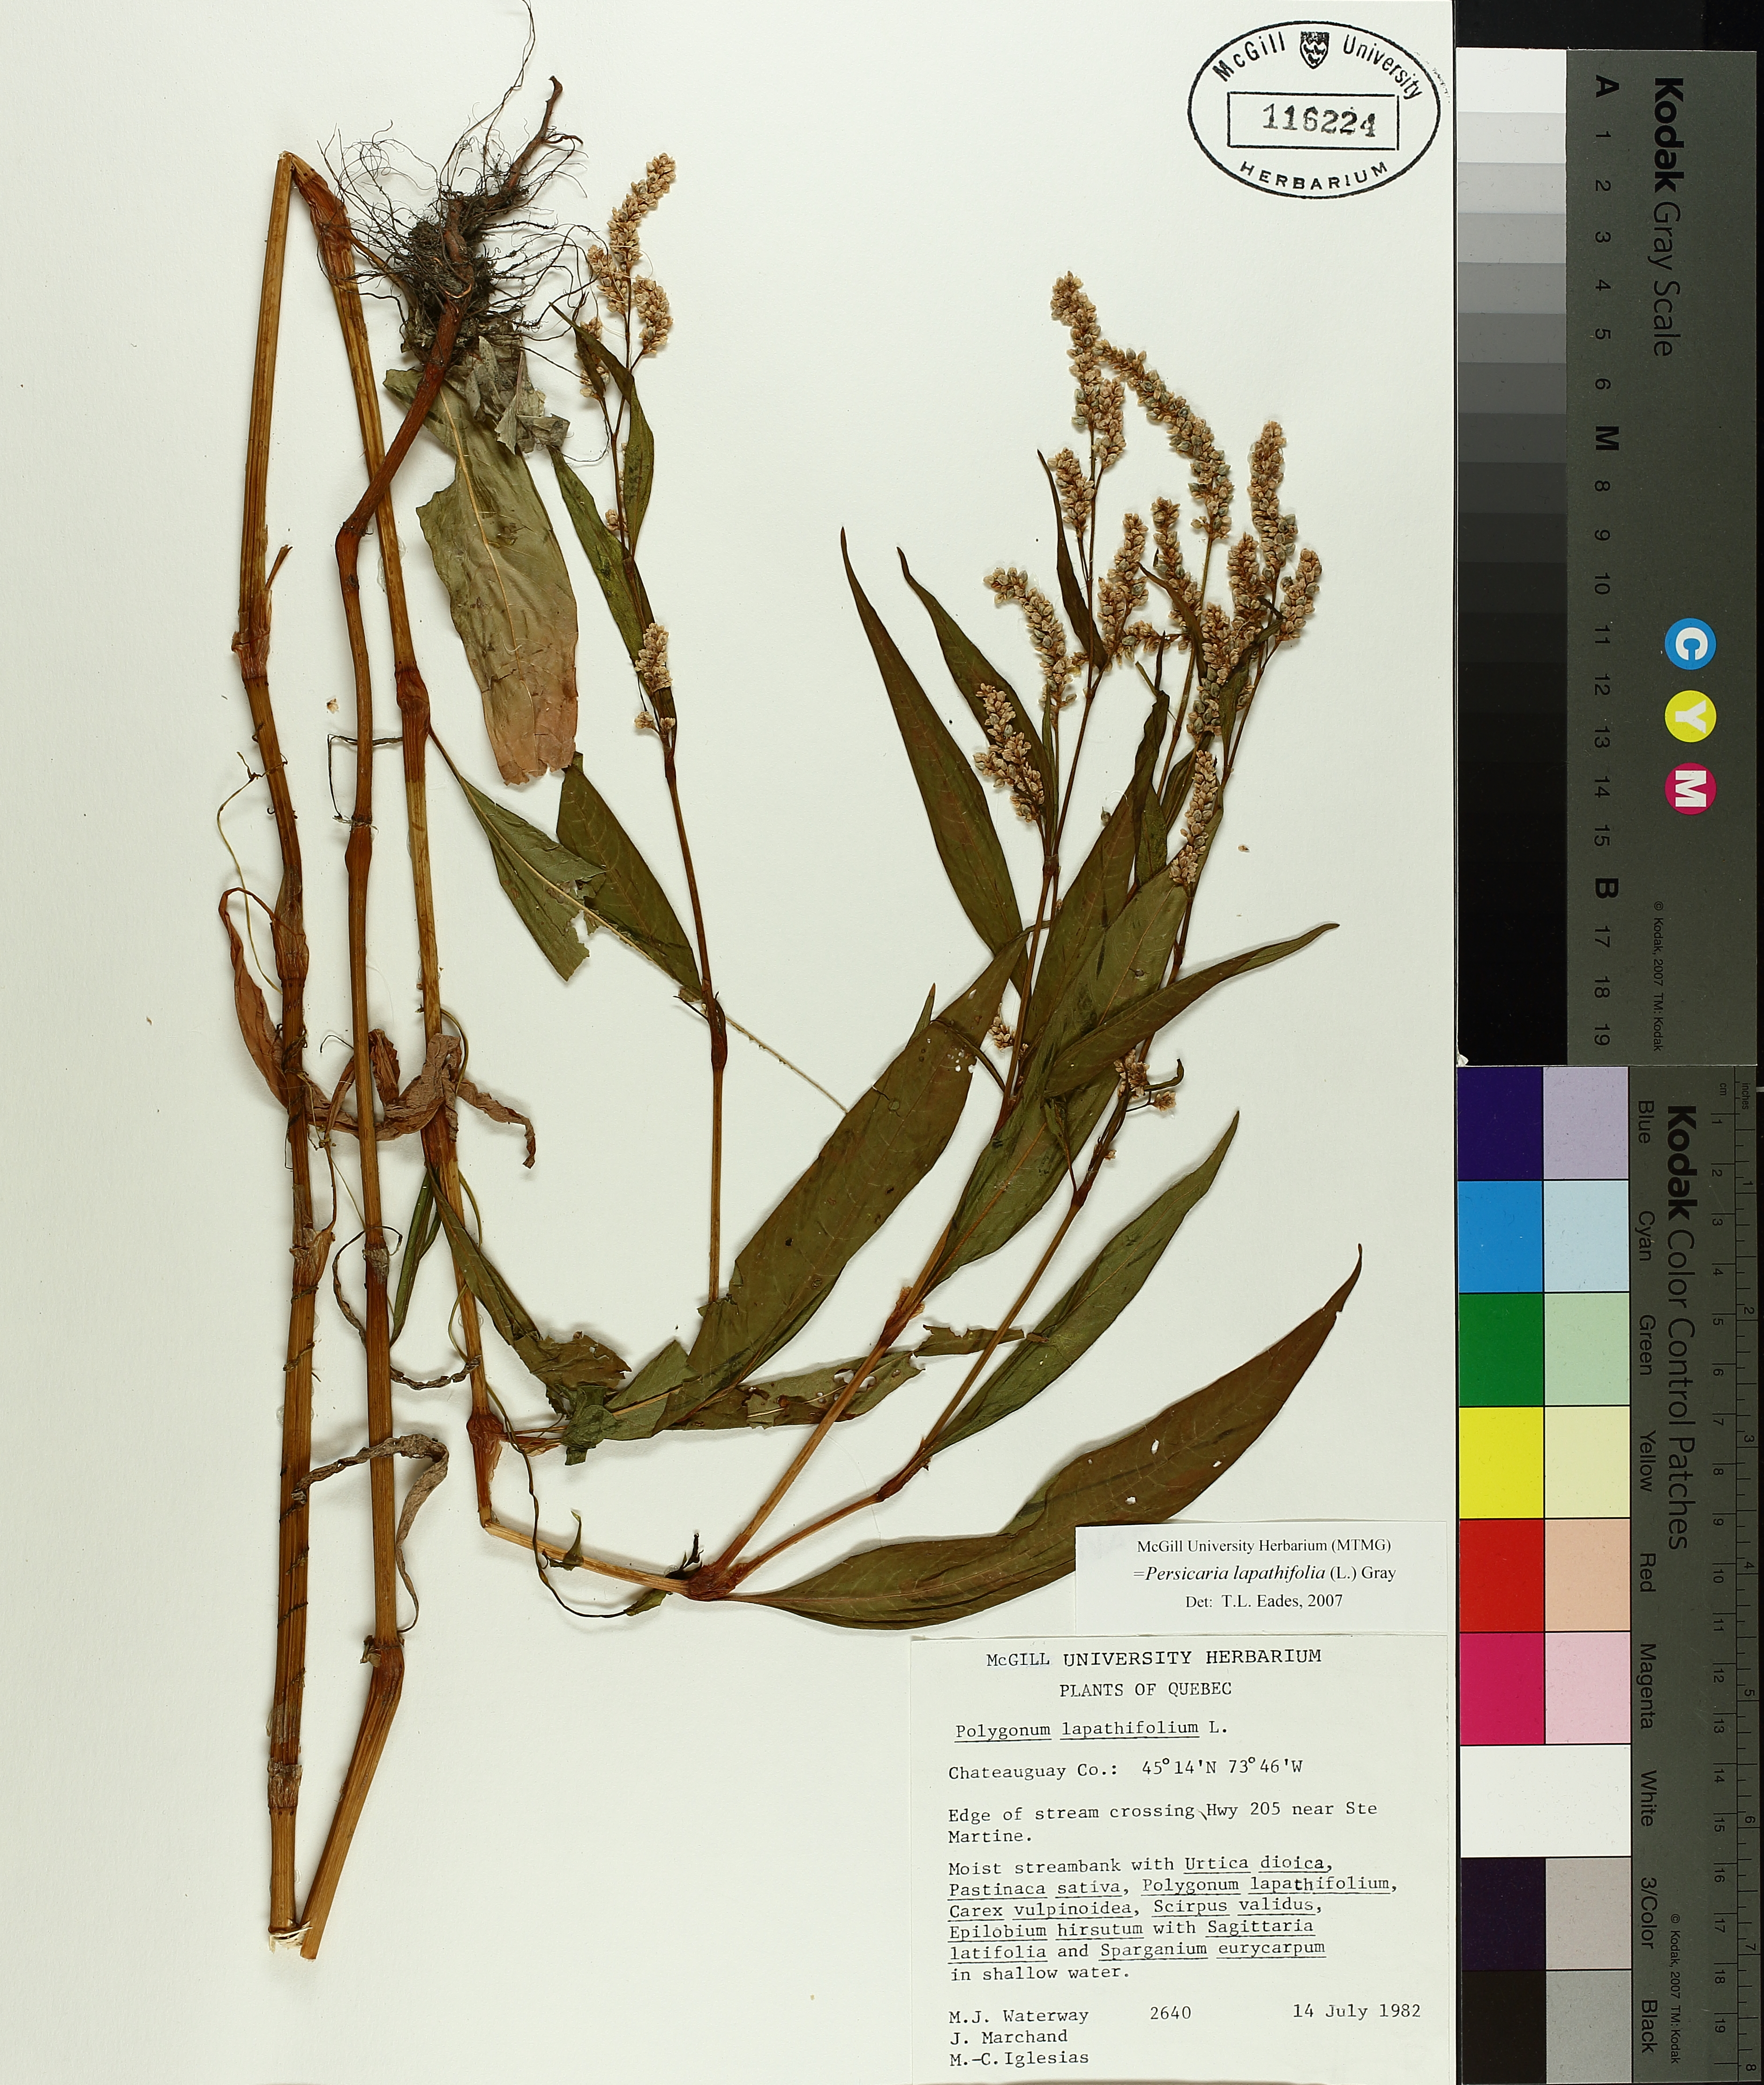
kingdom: Plantae
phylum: Tracheophyta
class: Magnoliopsida
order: Caryophyllales
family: Polygonaceae
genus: Persicaria
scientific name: Persicaria lapathifolia
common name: Curlytop knotweed
